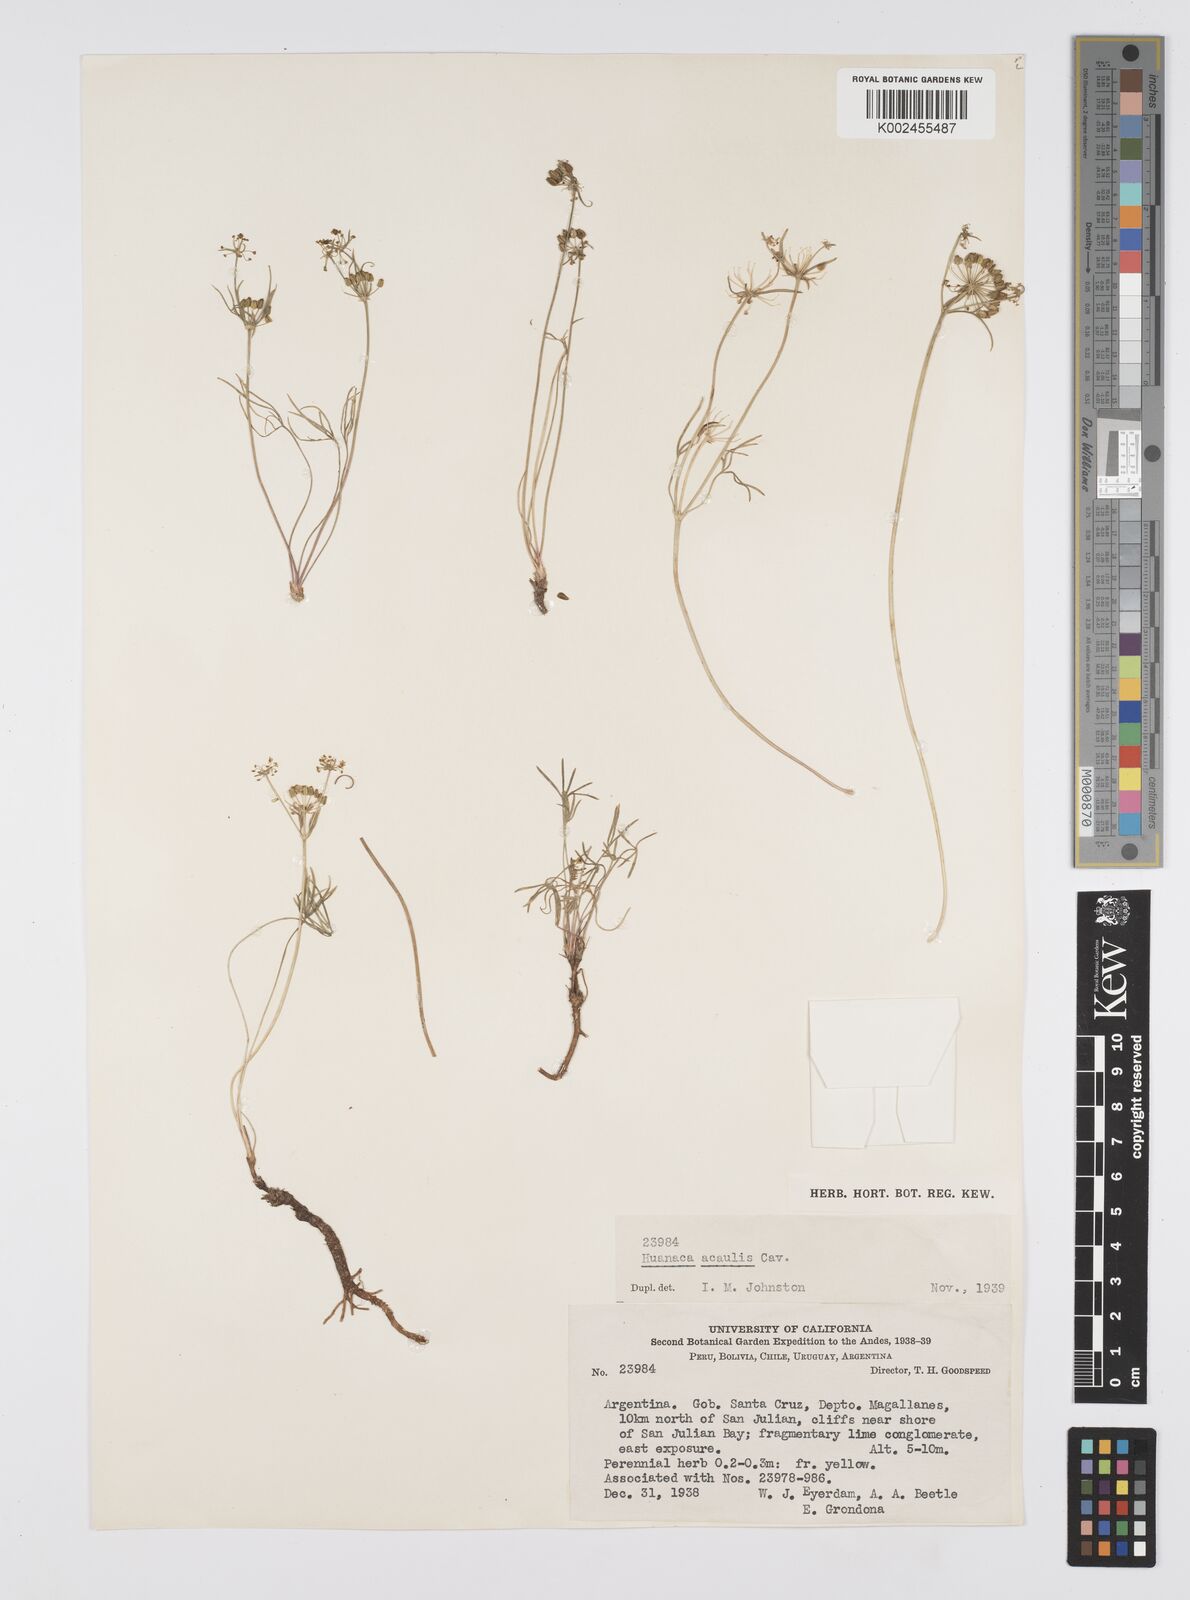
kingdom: Plantae
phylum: Tracheophyta
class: Magnoliopsida
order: Apiales
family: Apiaceae
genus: Azorella
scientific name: Azorella acaulis
